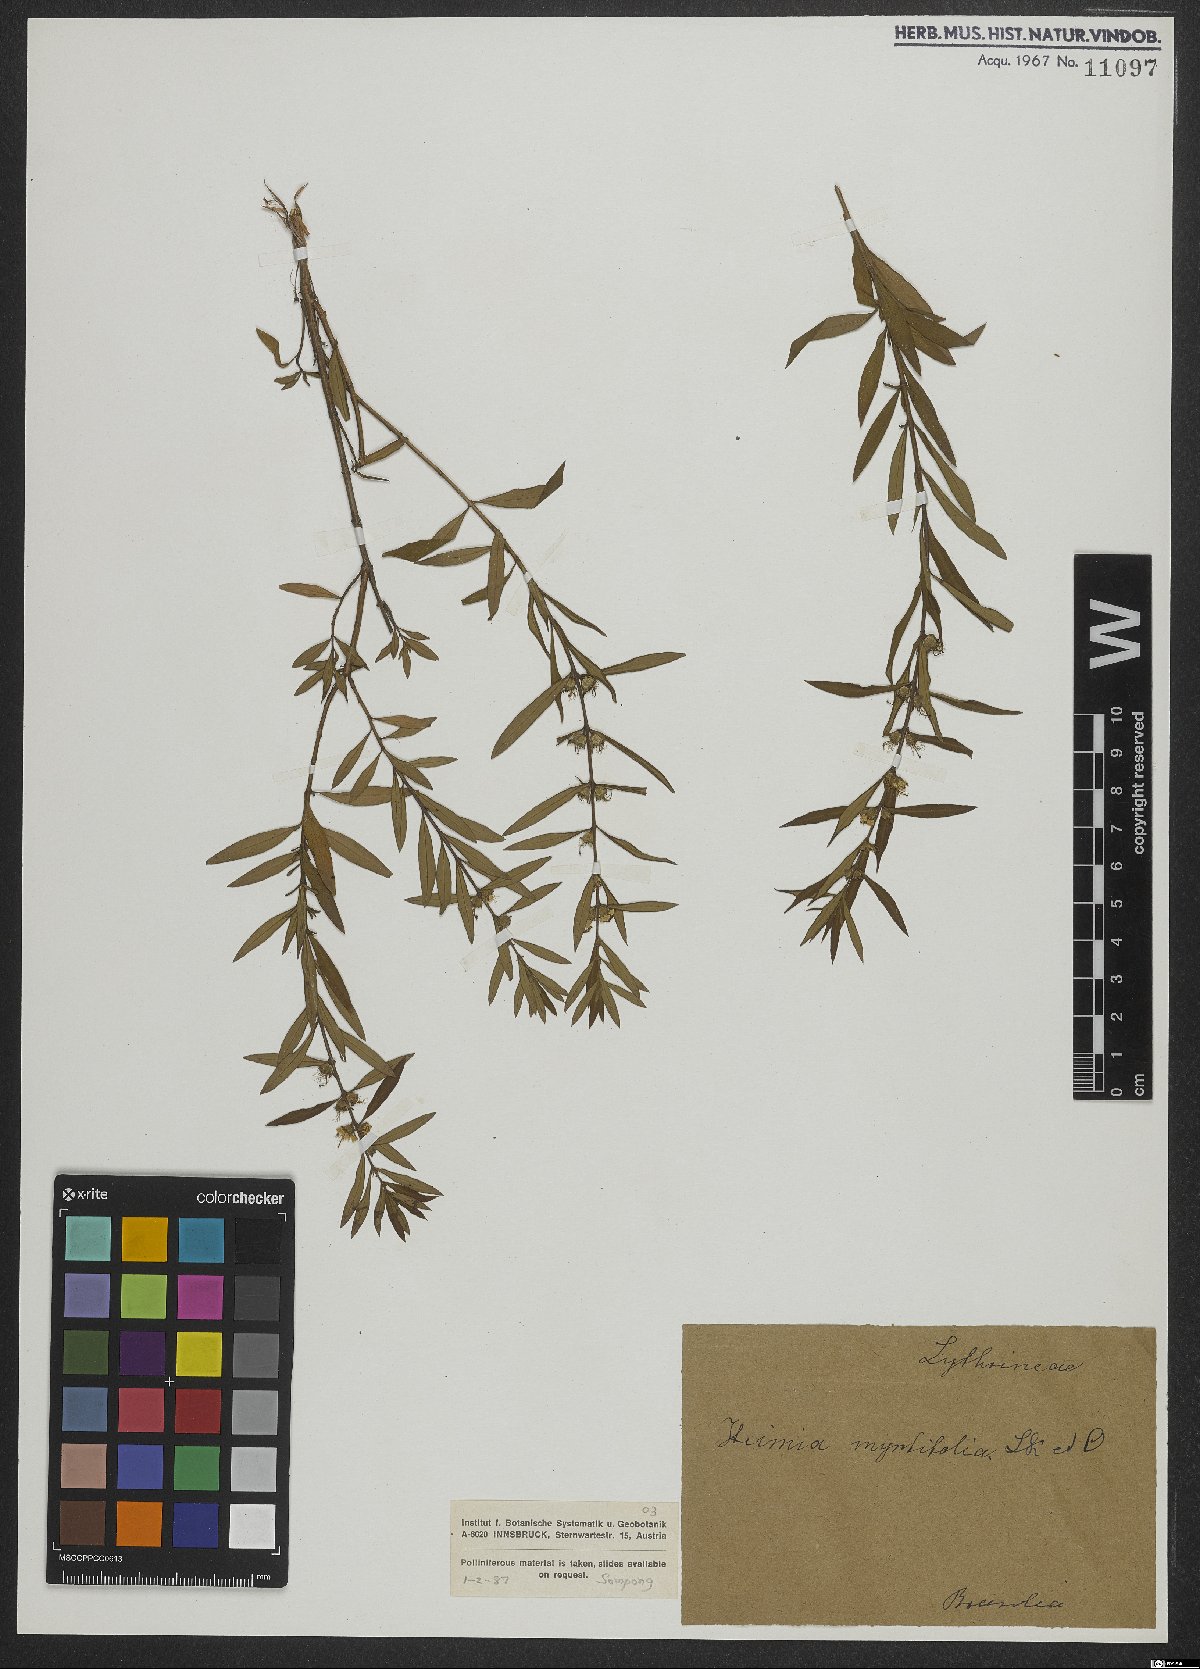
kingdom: Plantae
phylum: Tracheophyta
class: Magnoliopsida
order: Myrtales
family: Lythraceae
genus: Heimia
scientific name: Heimia apetala
